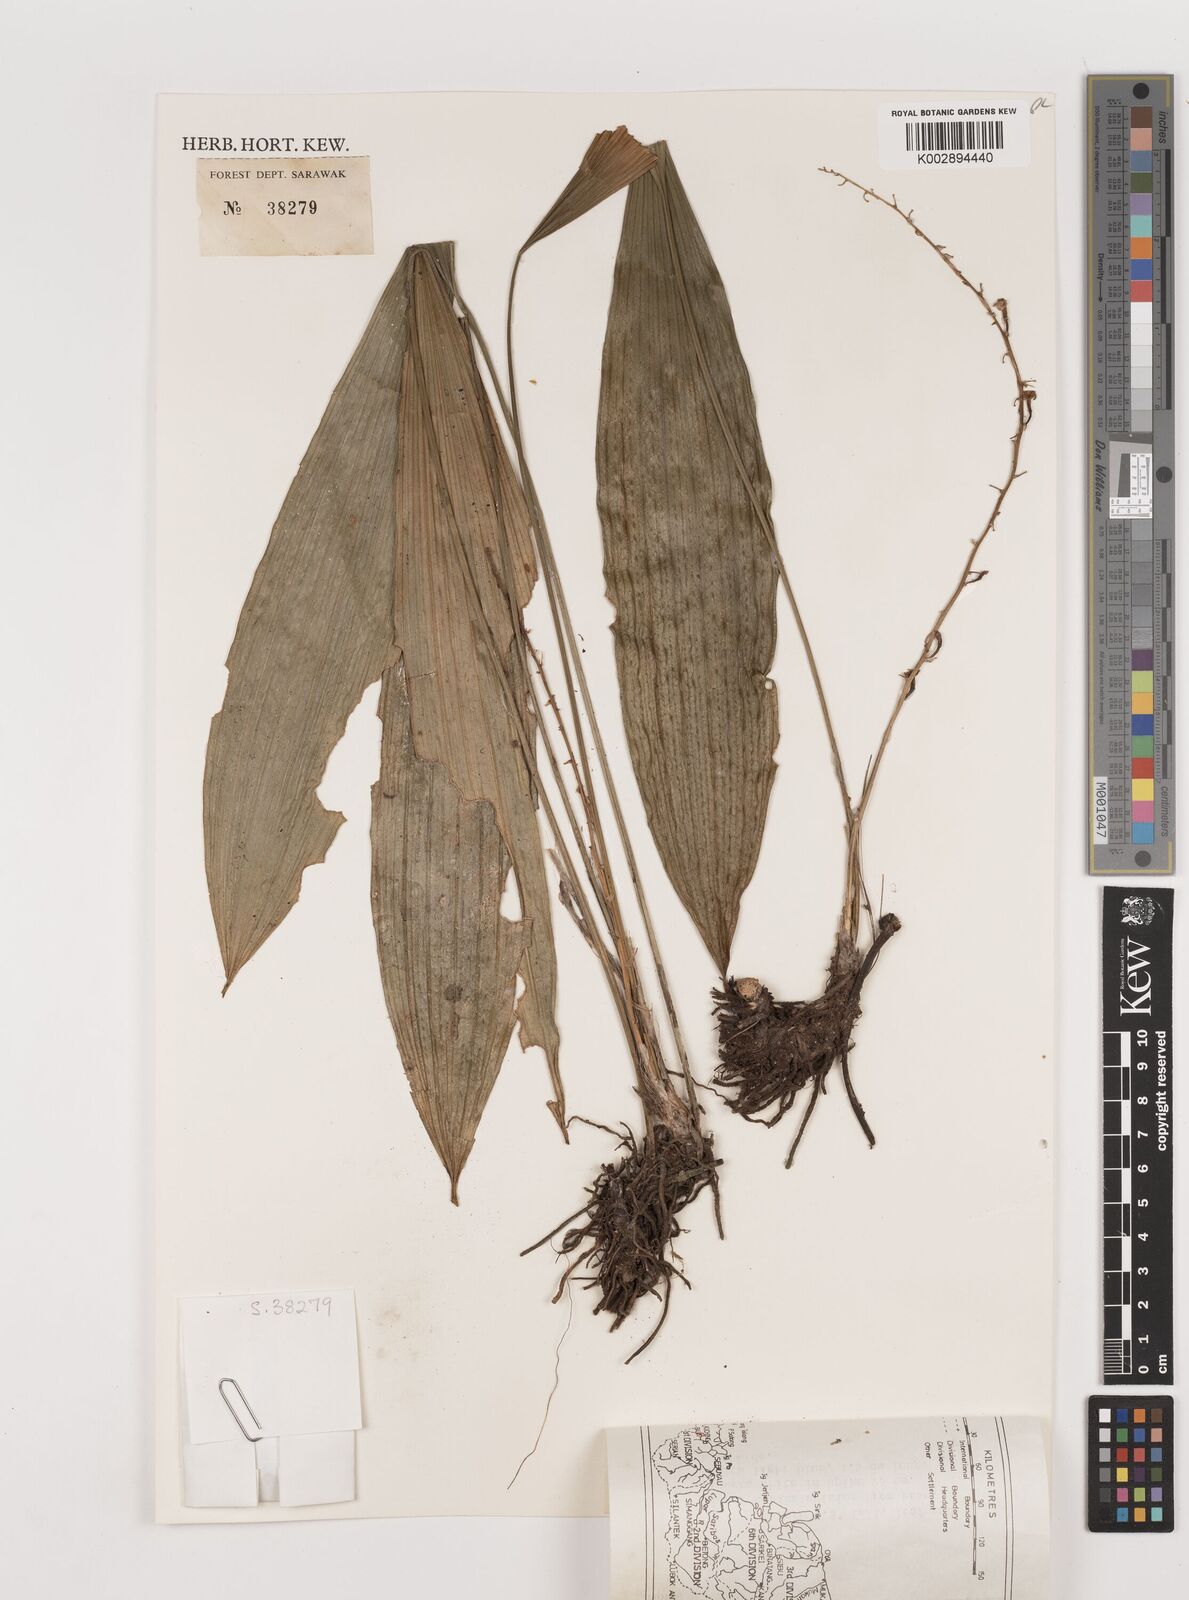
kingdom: Plantae
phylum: Tracheophyta
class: Liliopsida
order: Asparagales
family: Asparagaceae
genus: Peliosanthes
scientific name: Peliosanthes teta
